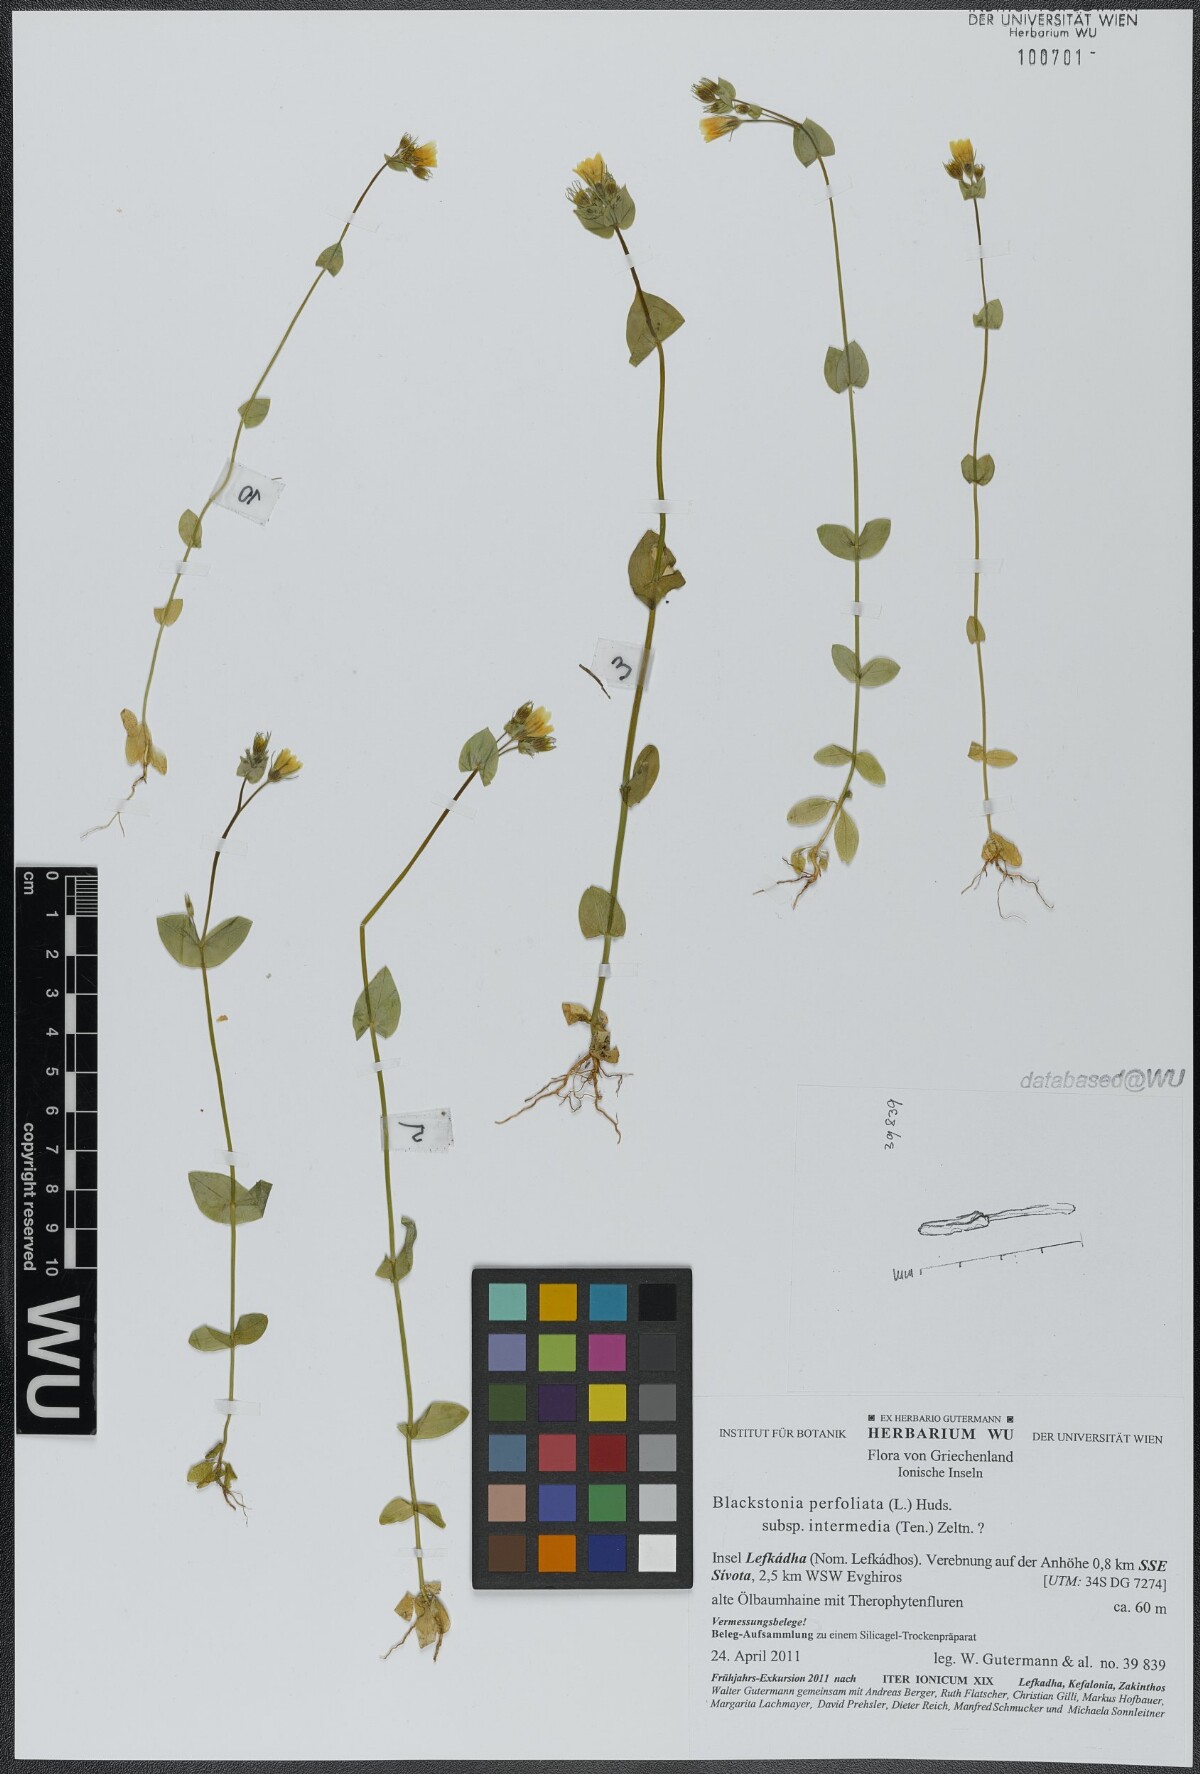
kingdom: Plantae
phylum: Tracheophyta
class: Magnoliopsida
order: Gentianales
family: Gentianaceae
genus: Blackstonia
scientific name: Blackstonia perfoliata
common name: Yellow-wort
